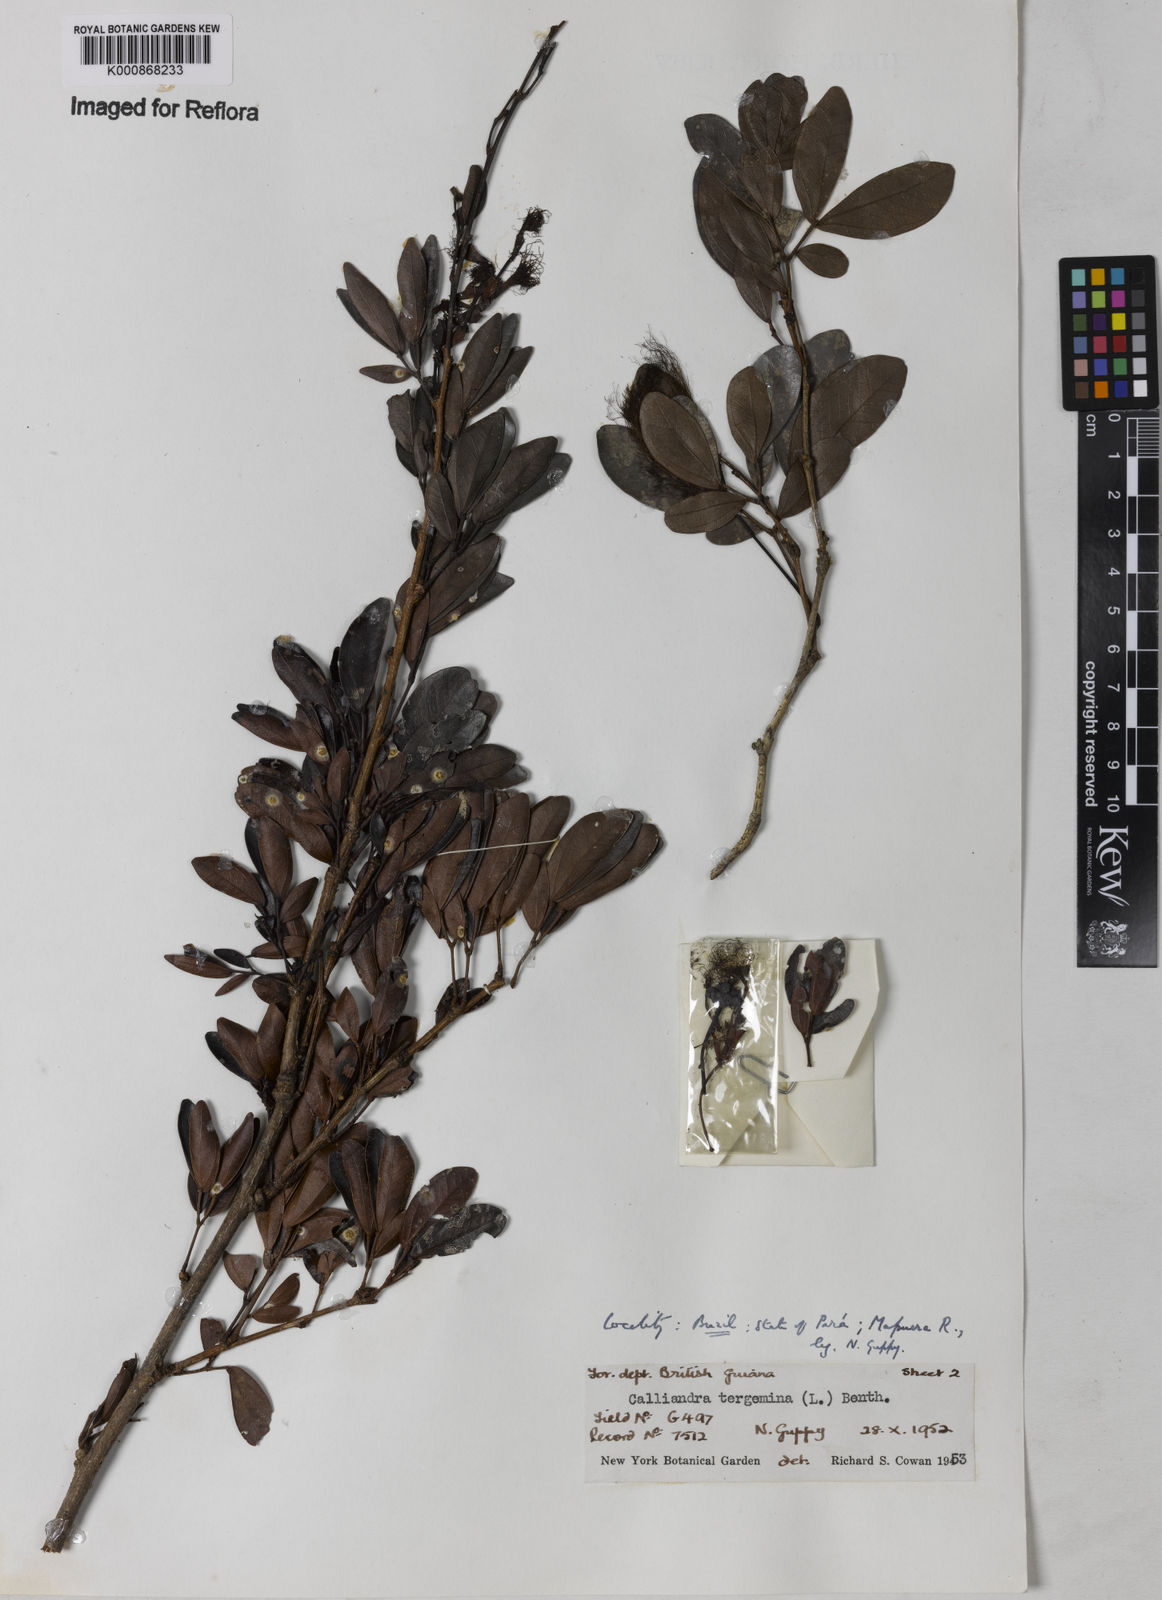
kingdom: Plantae
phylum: Tracheophyta
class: Magnoliopsida
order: Fabales
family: Fabaceae
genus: Calliandra
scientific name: Calliandra tergemina
